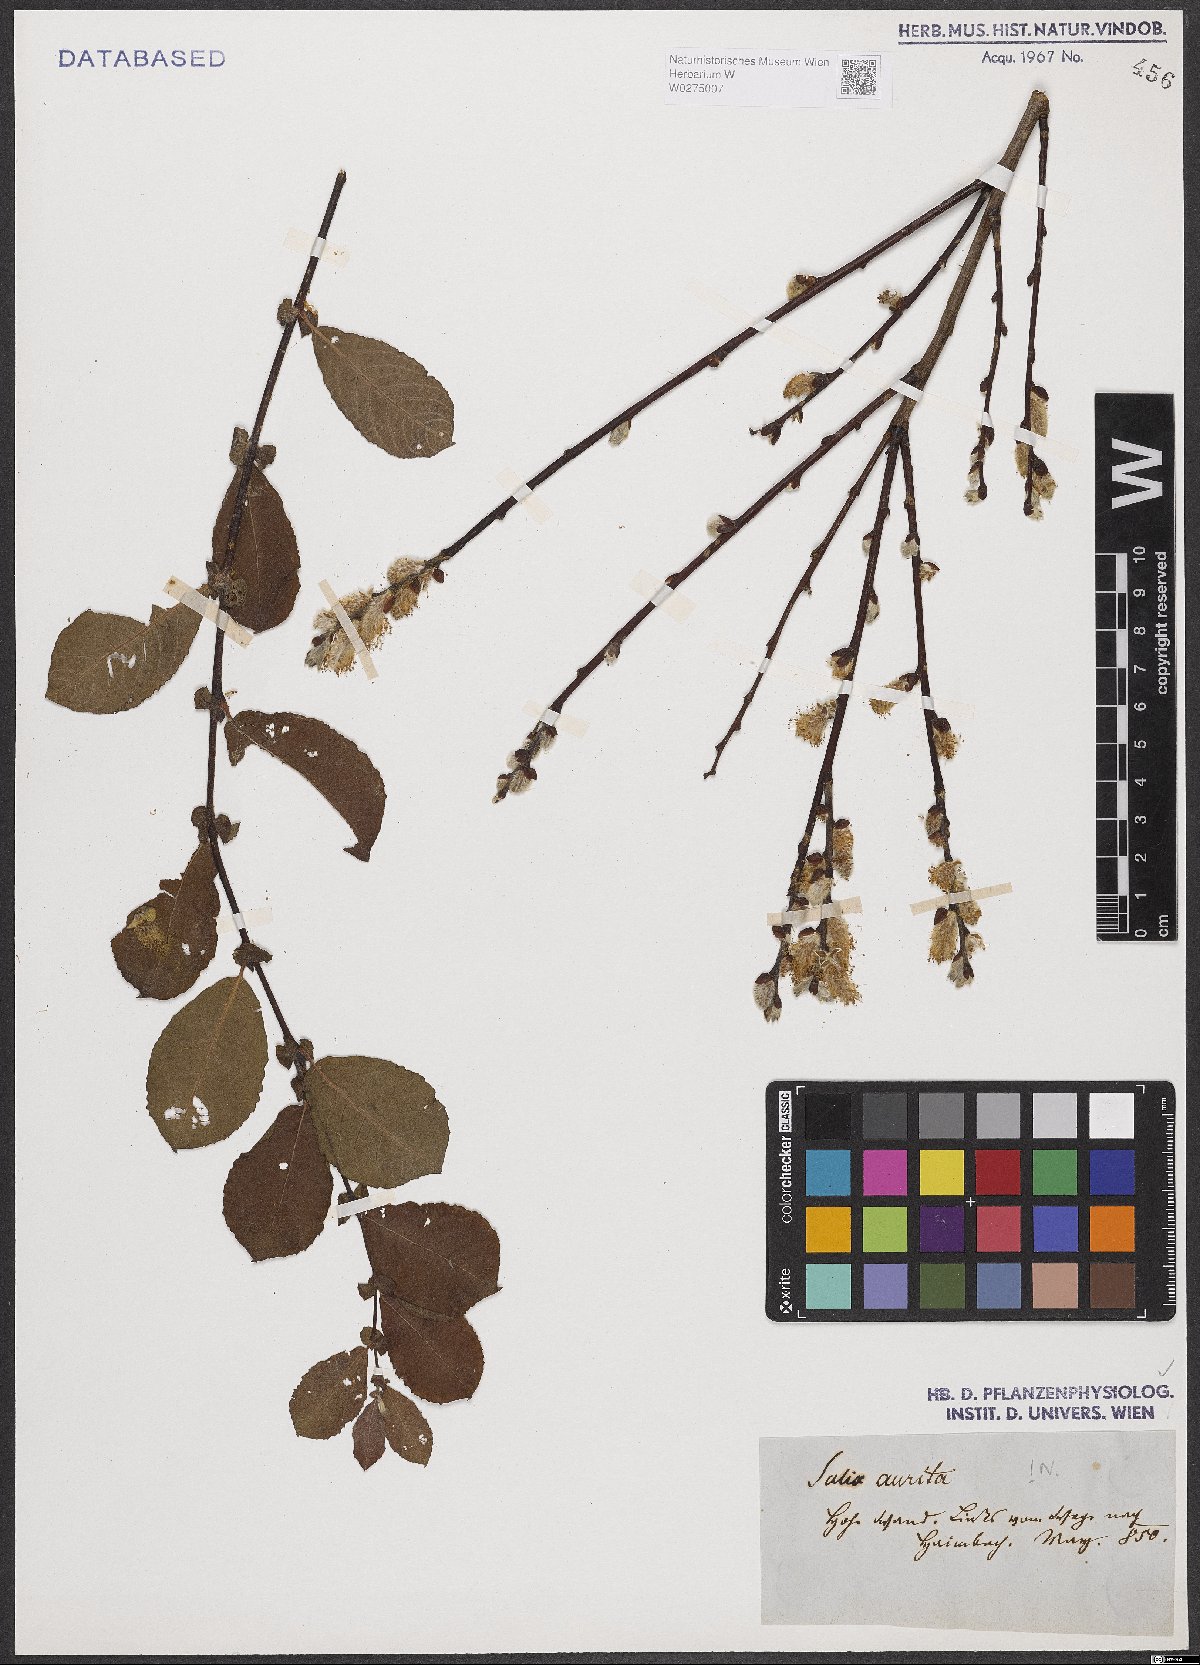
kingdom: Plantae
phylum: Tracheophyta
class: Magnoliopsida
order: Malpighiales
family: Salicaceae
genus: Salix
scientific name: Salix aurita
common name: Eared willow
